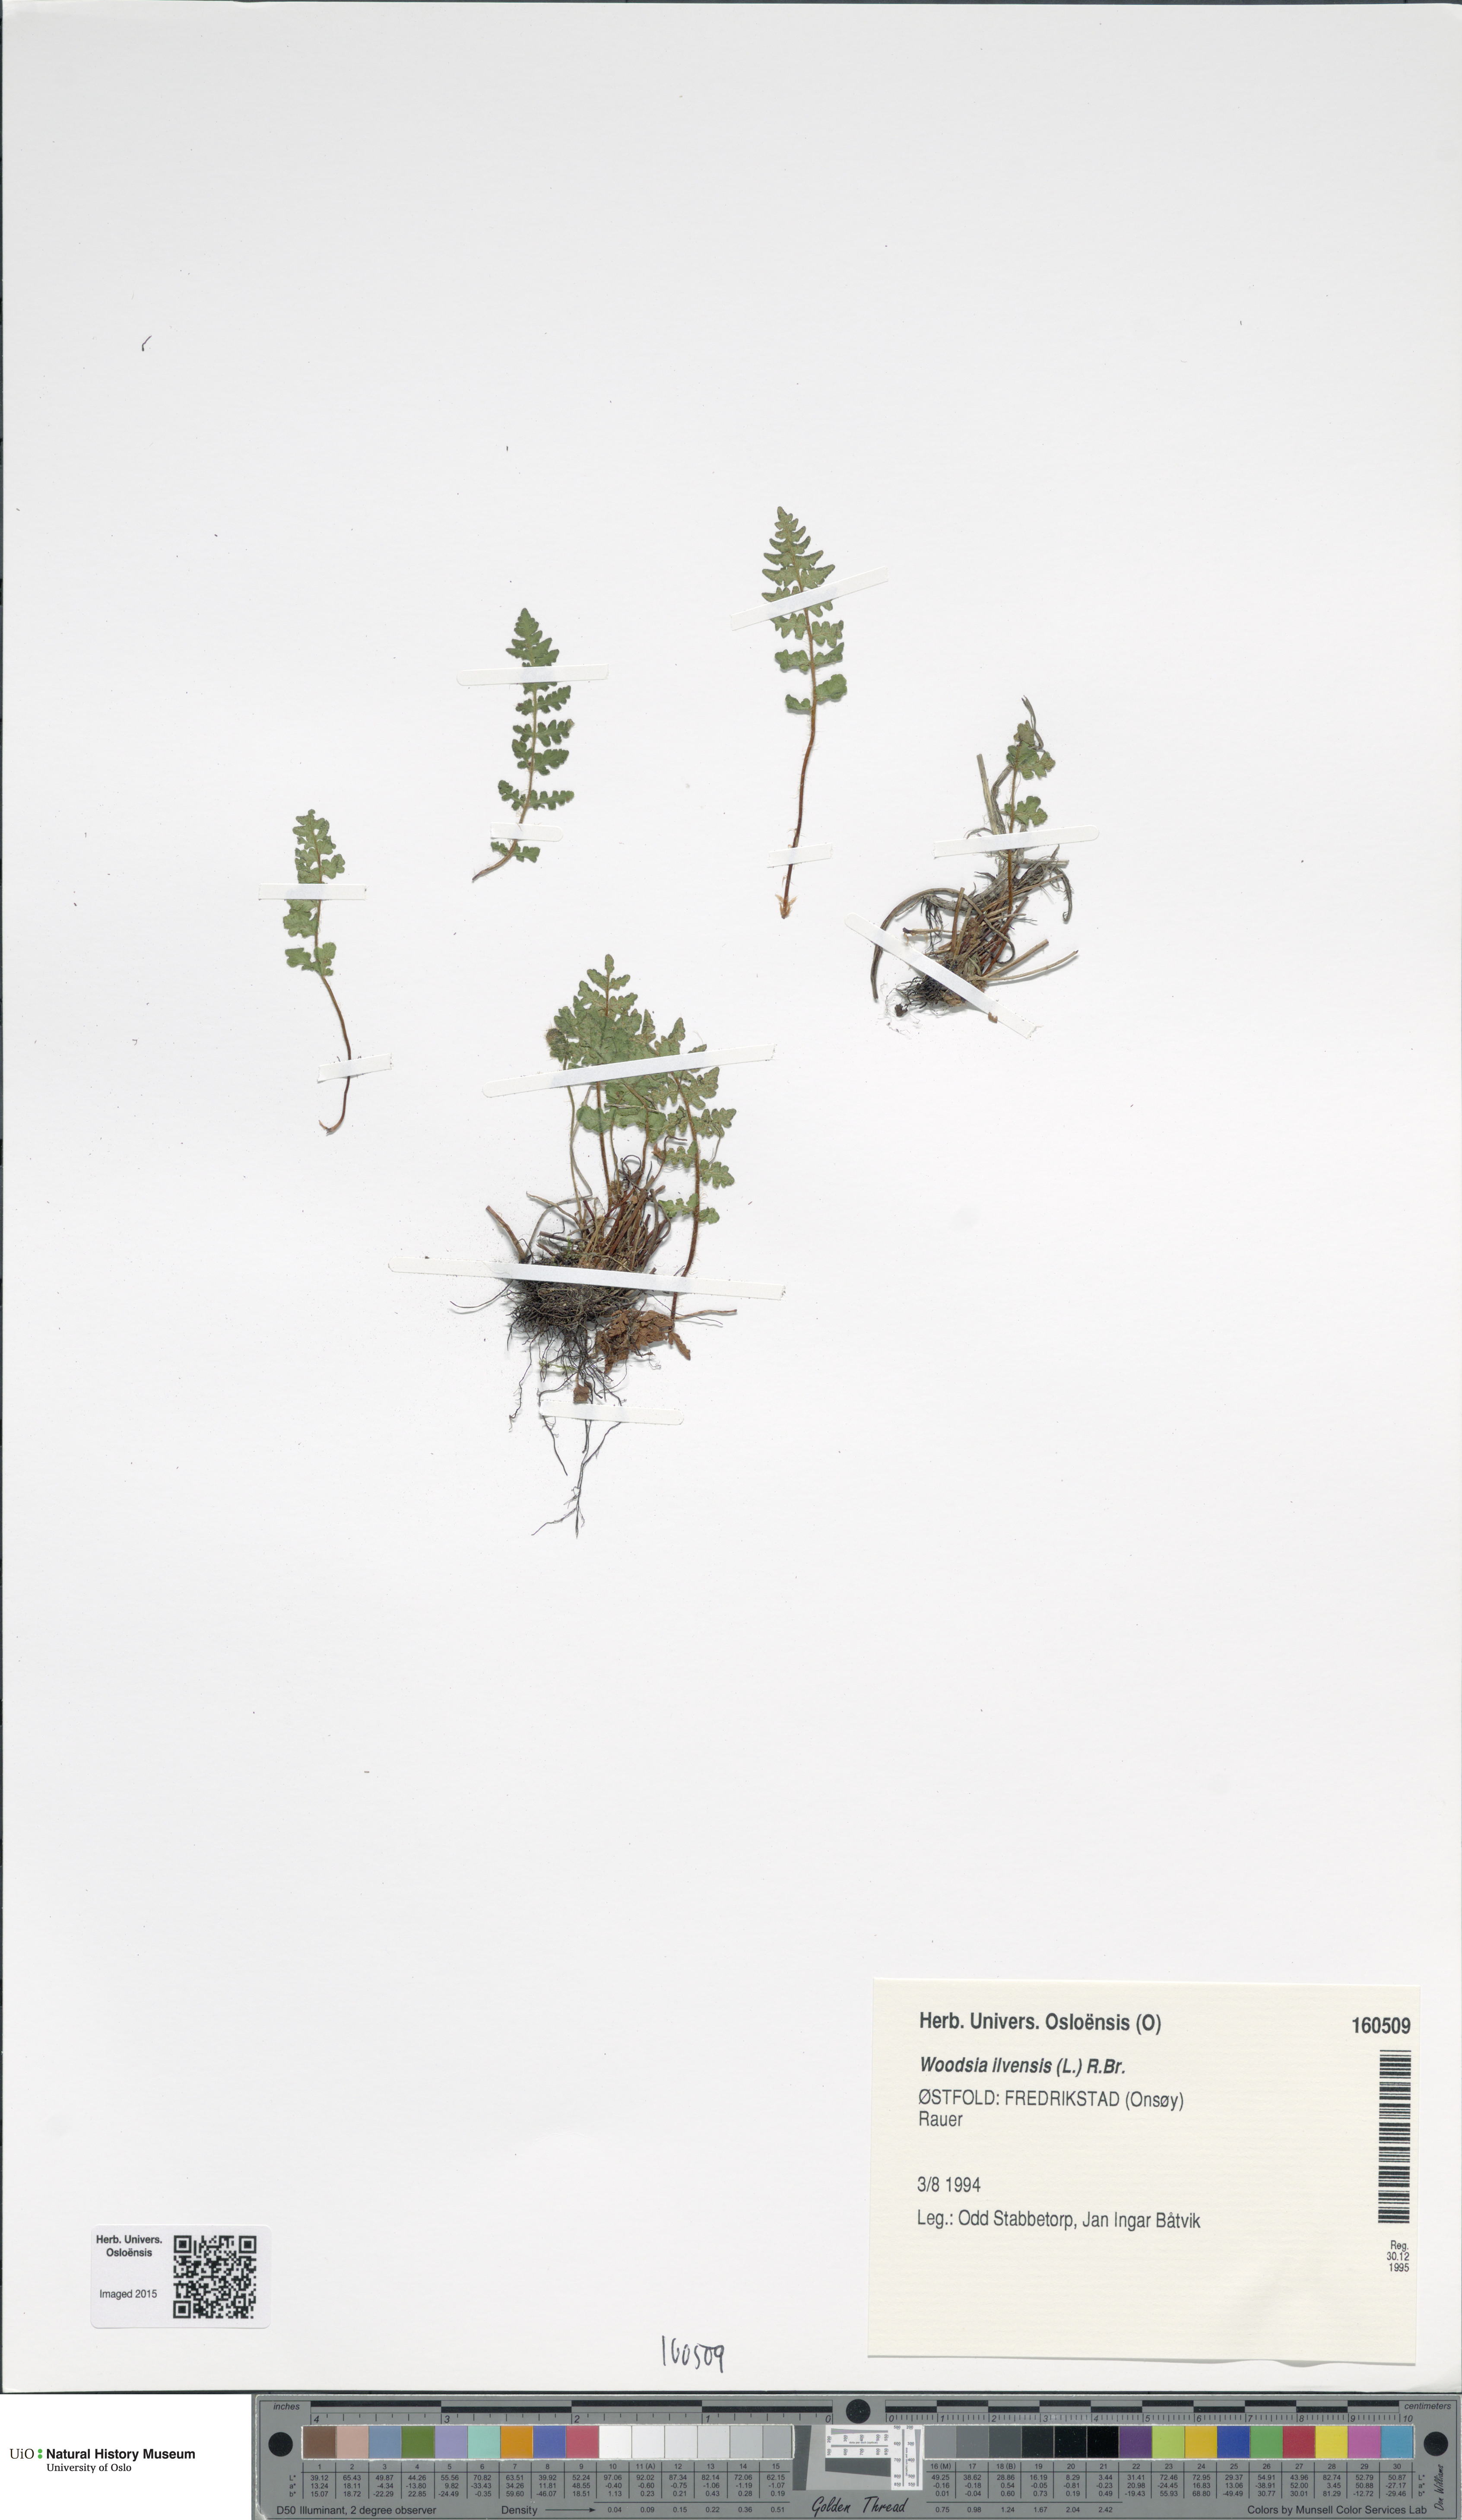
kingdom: Plantae
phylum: Tracheophyta
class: Polypodiopsida
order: Polypodiales
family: Woodsiaceae
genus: Woodsia
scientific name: Woodsia ilvensis
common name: Fragrant woodsia
